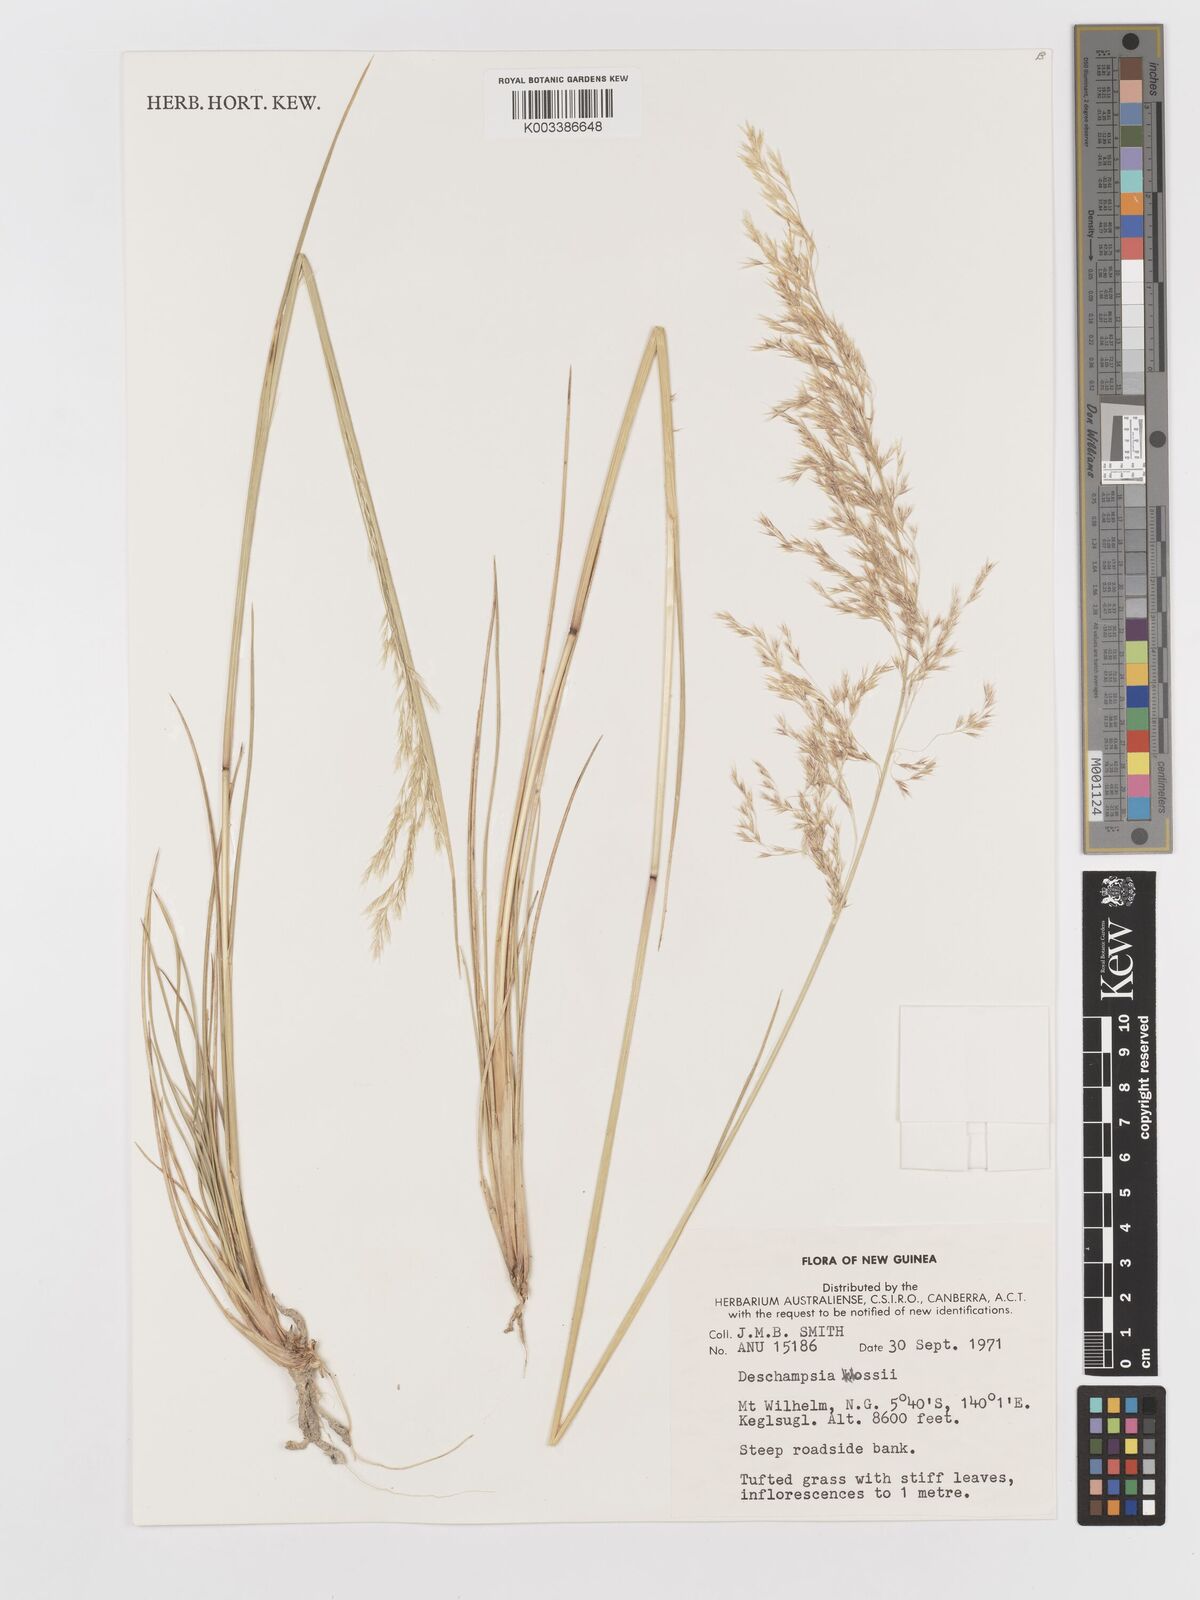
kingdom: Plantae
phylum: Tracheophyta
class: Liliopsida
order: Poales
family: Poaceae
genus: Deschampsia
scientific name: Deschampsia klossii
